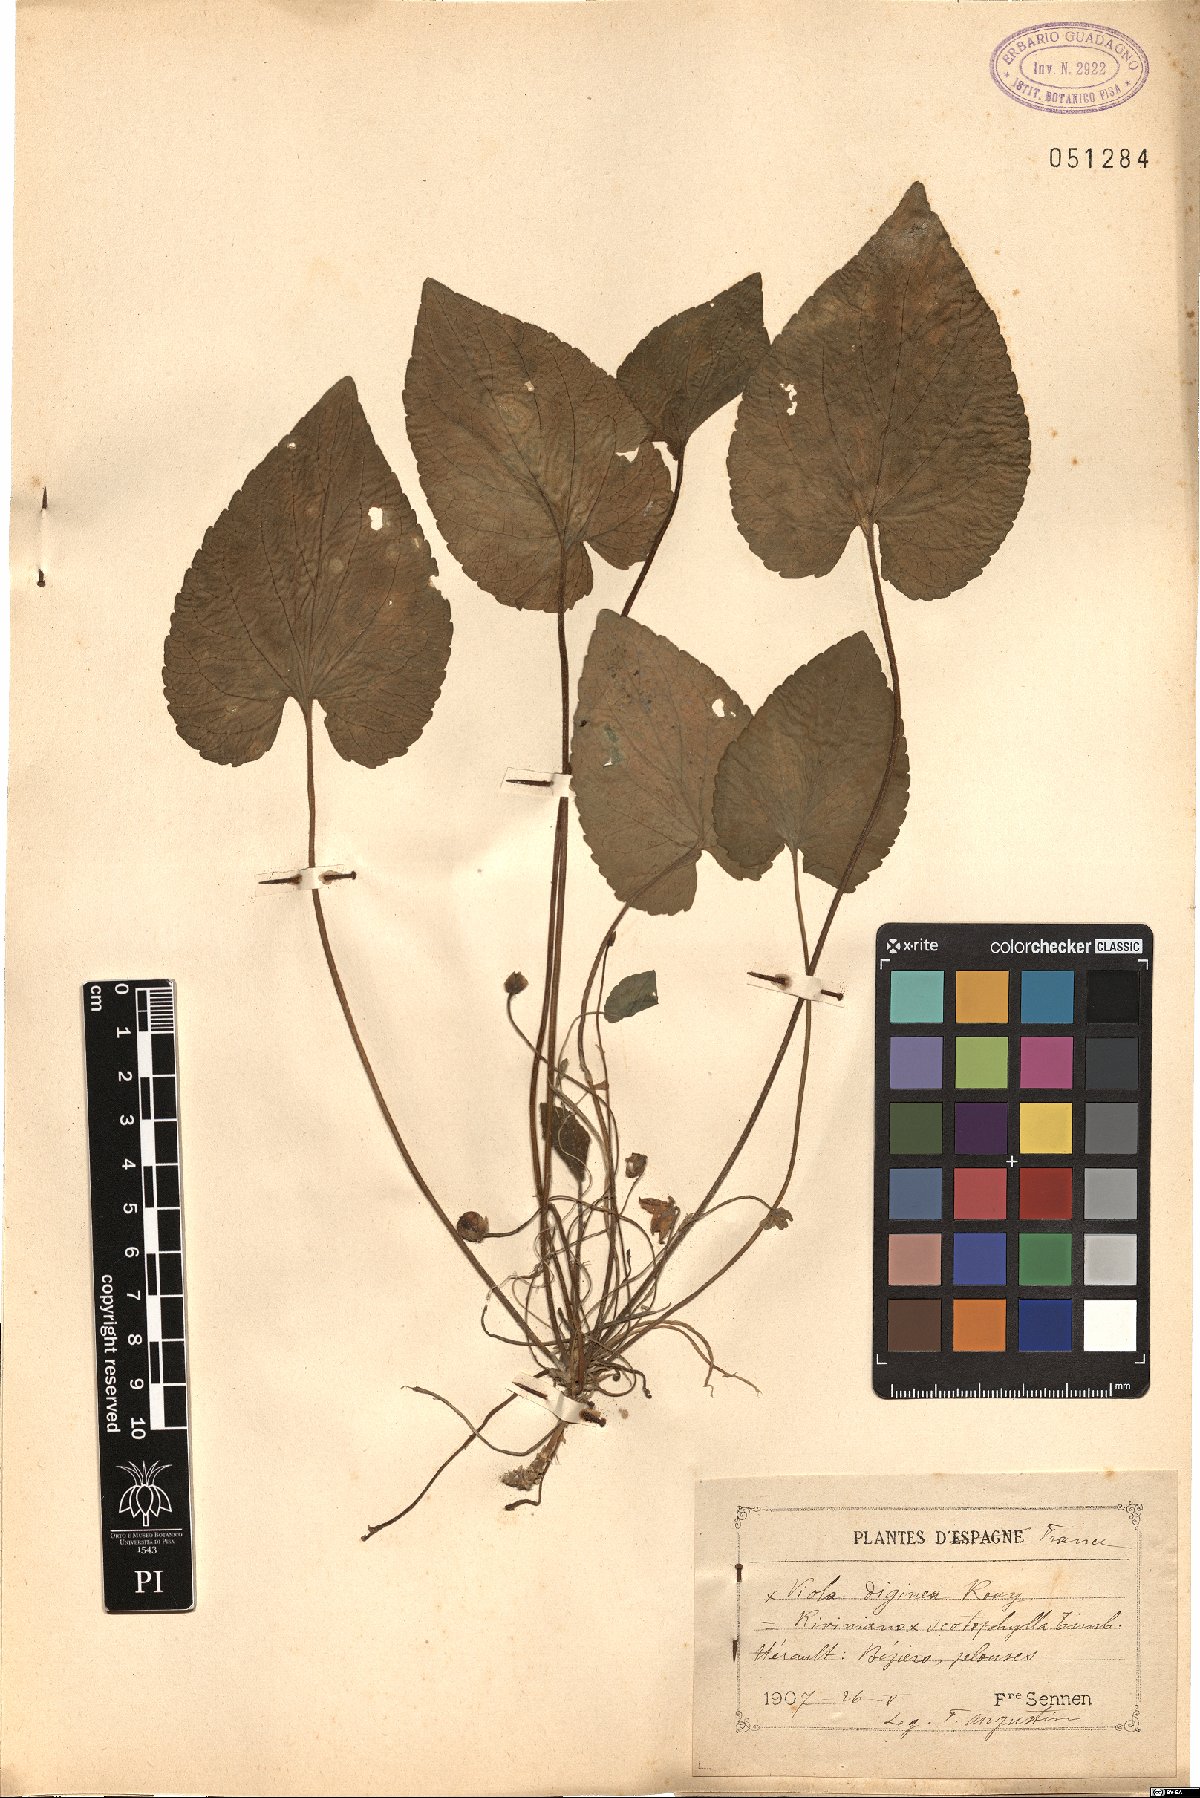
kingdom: Plantae
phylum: Tracheophyta
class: Magnoliopsida
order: Malpighiales
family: Violaceae
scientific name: Violaceae
